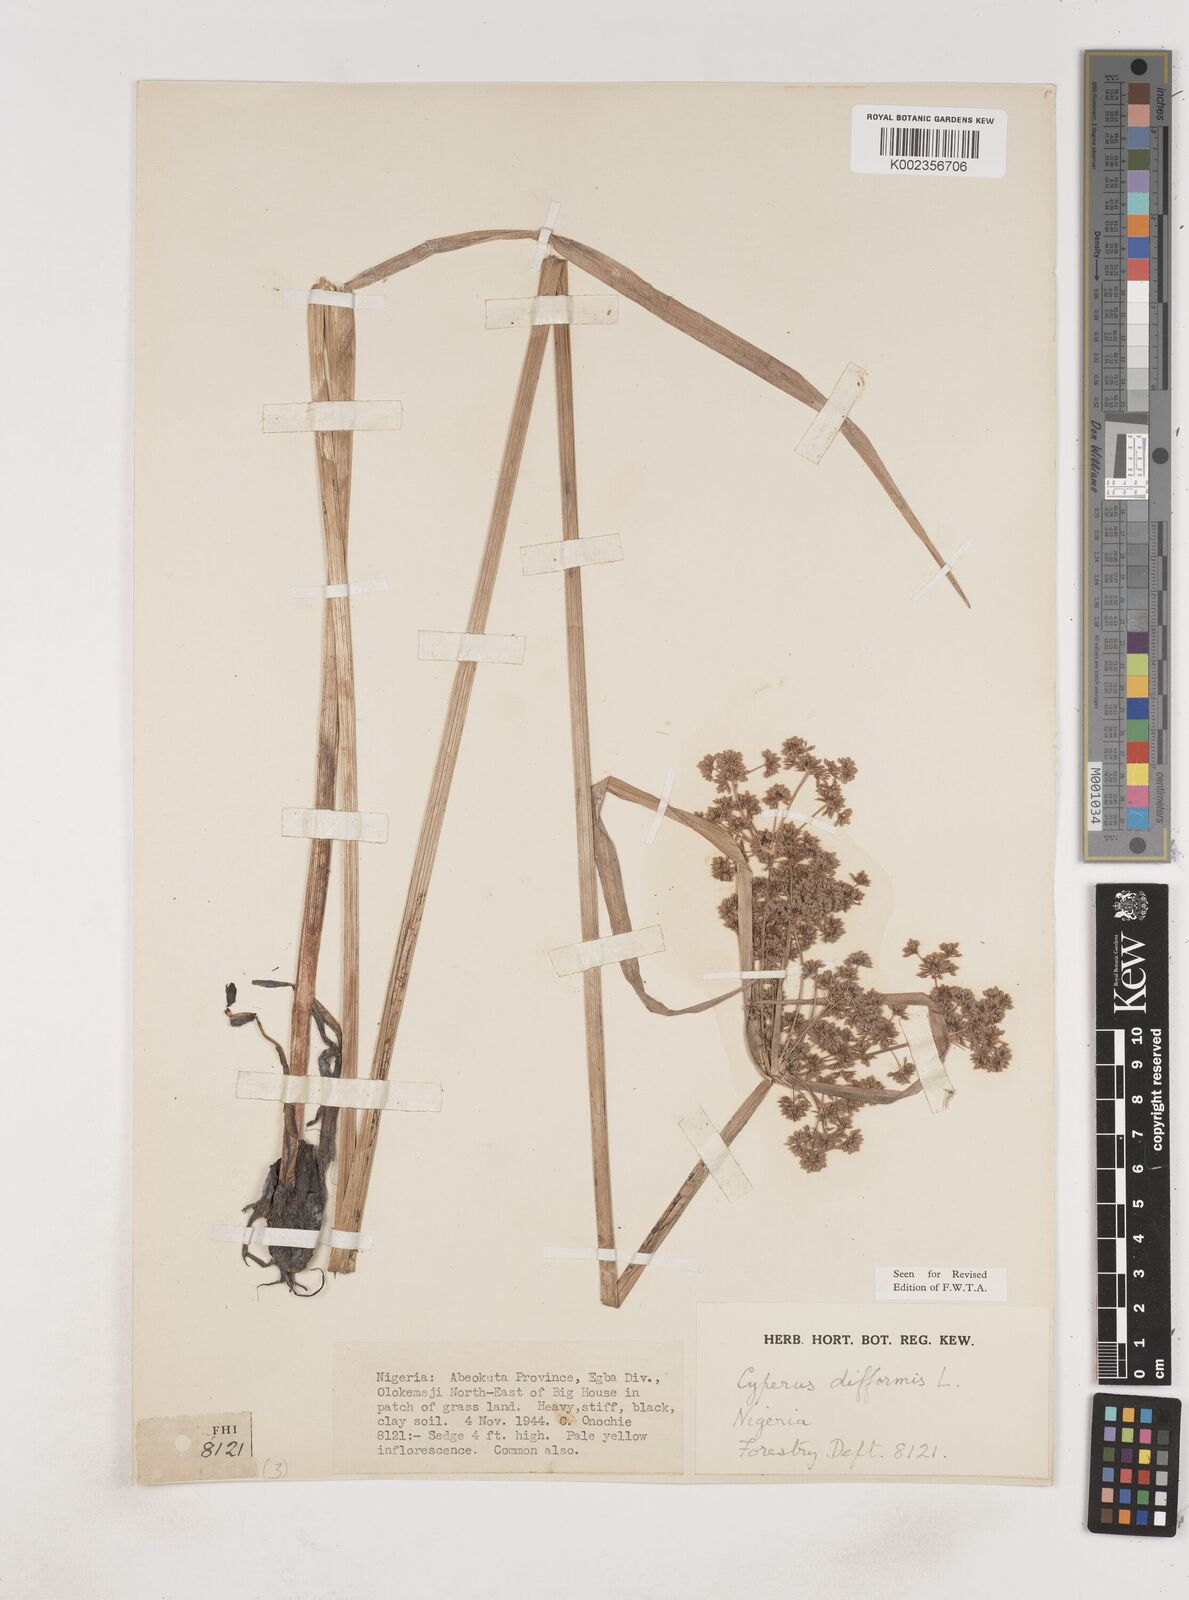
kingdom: Plantae
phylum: Tracheophyta
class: Liliopsida
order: Poales
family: Cyperaceae
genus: Cyperus
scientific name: Cyperus difformis
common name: Variable flatsedge
